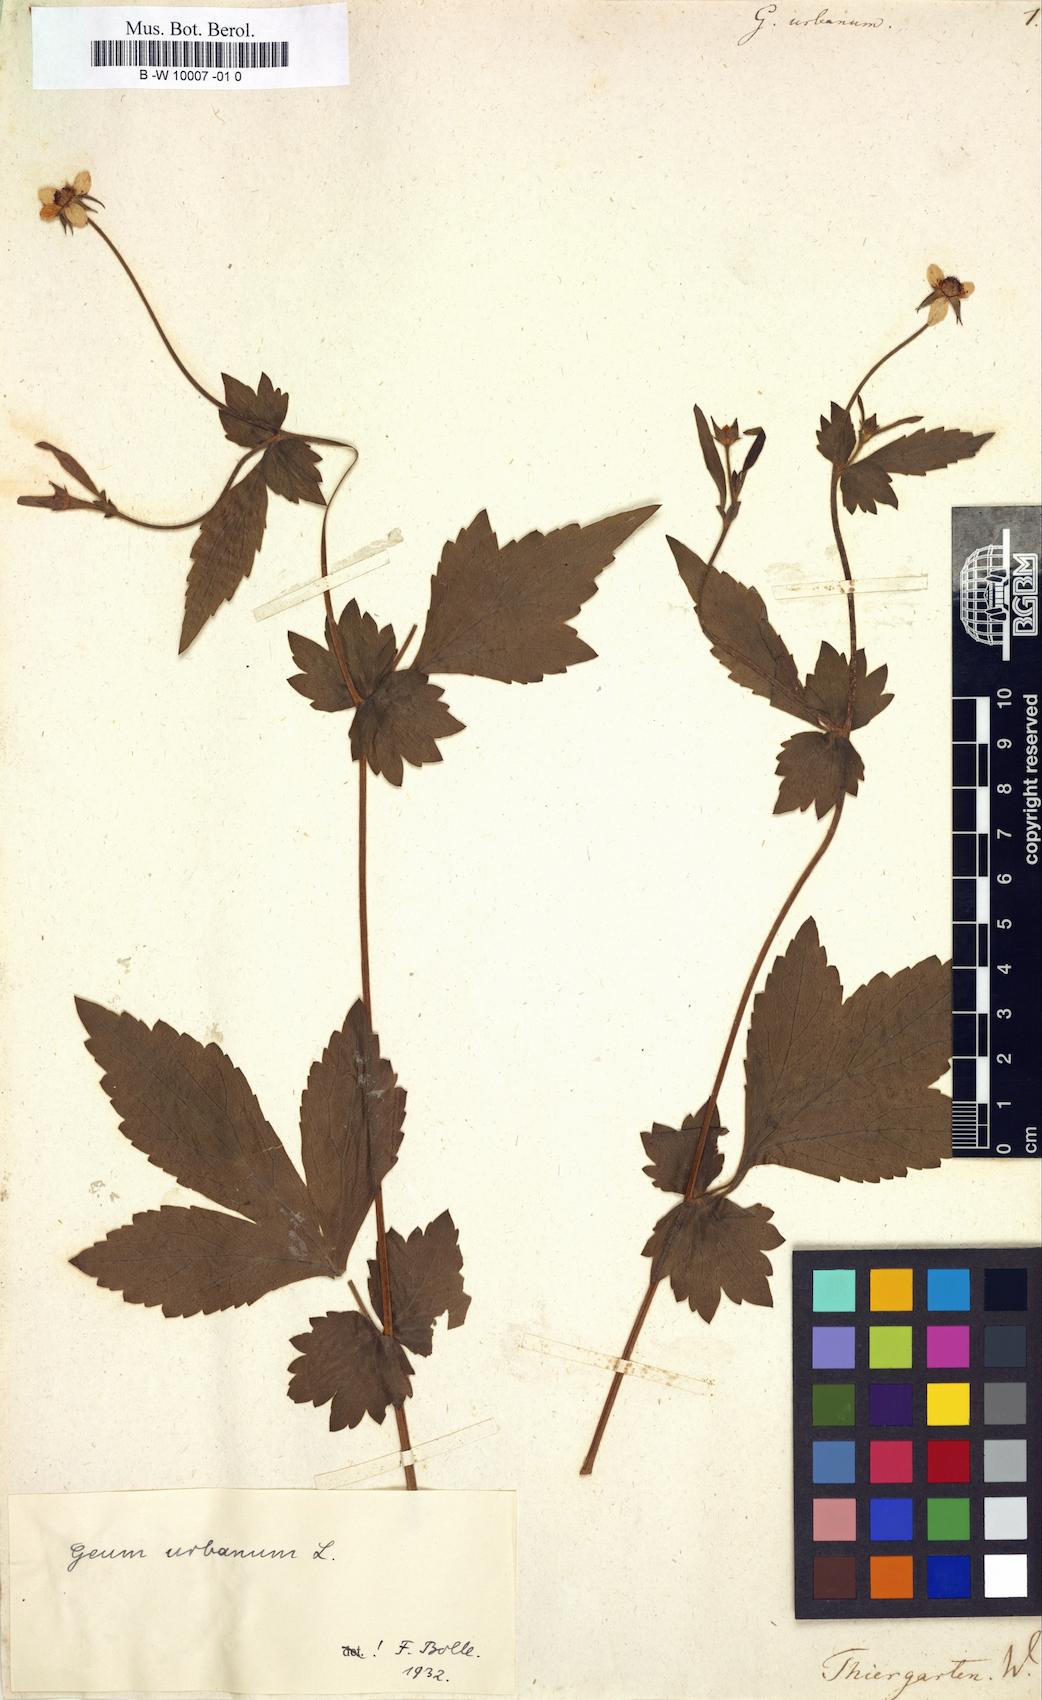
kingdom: Plantae
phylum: Tracheophyta
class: Magnoliopsida
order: Rosales
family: Rosaceae
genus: Geum
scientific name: Geum urbanum
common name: Wood avens
